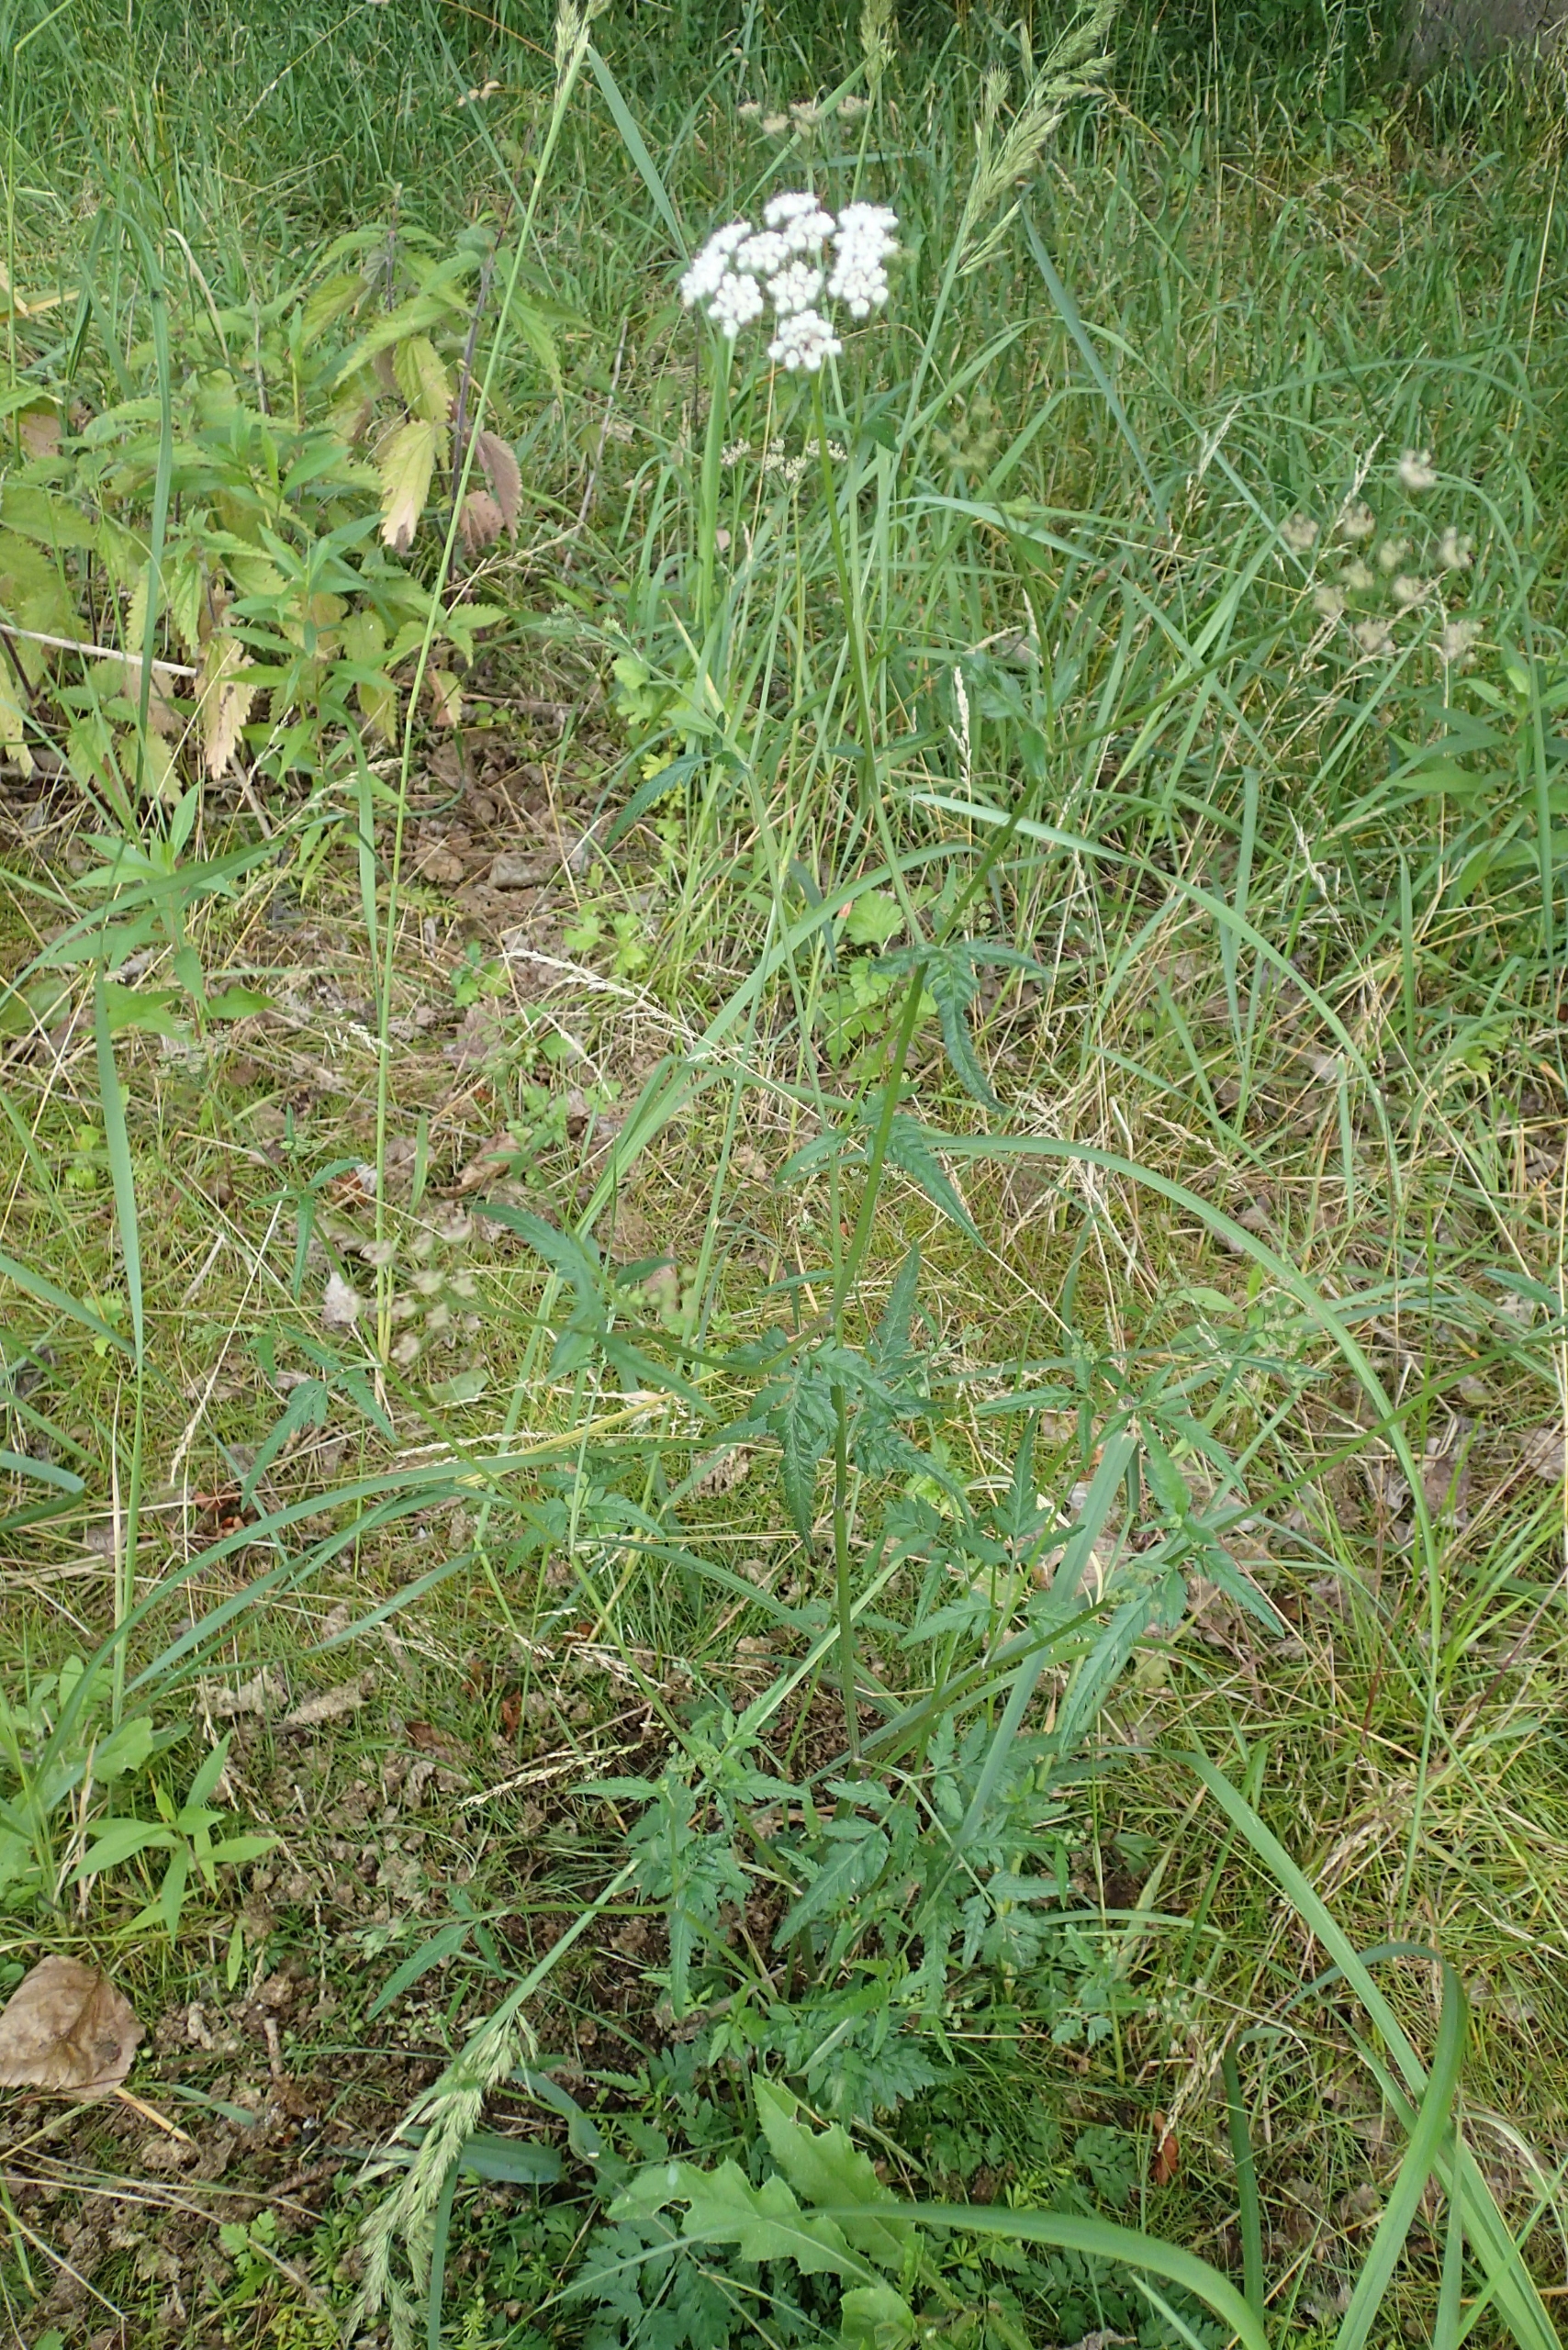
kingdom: Plantae
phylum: Tracheophyta
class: Magnoliopsida
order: Apiales
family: Apiaceae
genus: Torilis
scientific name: Torilis japonica
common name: Hvas randfrø
